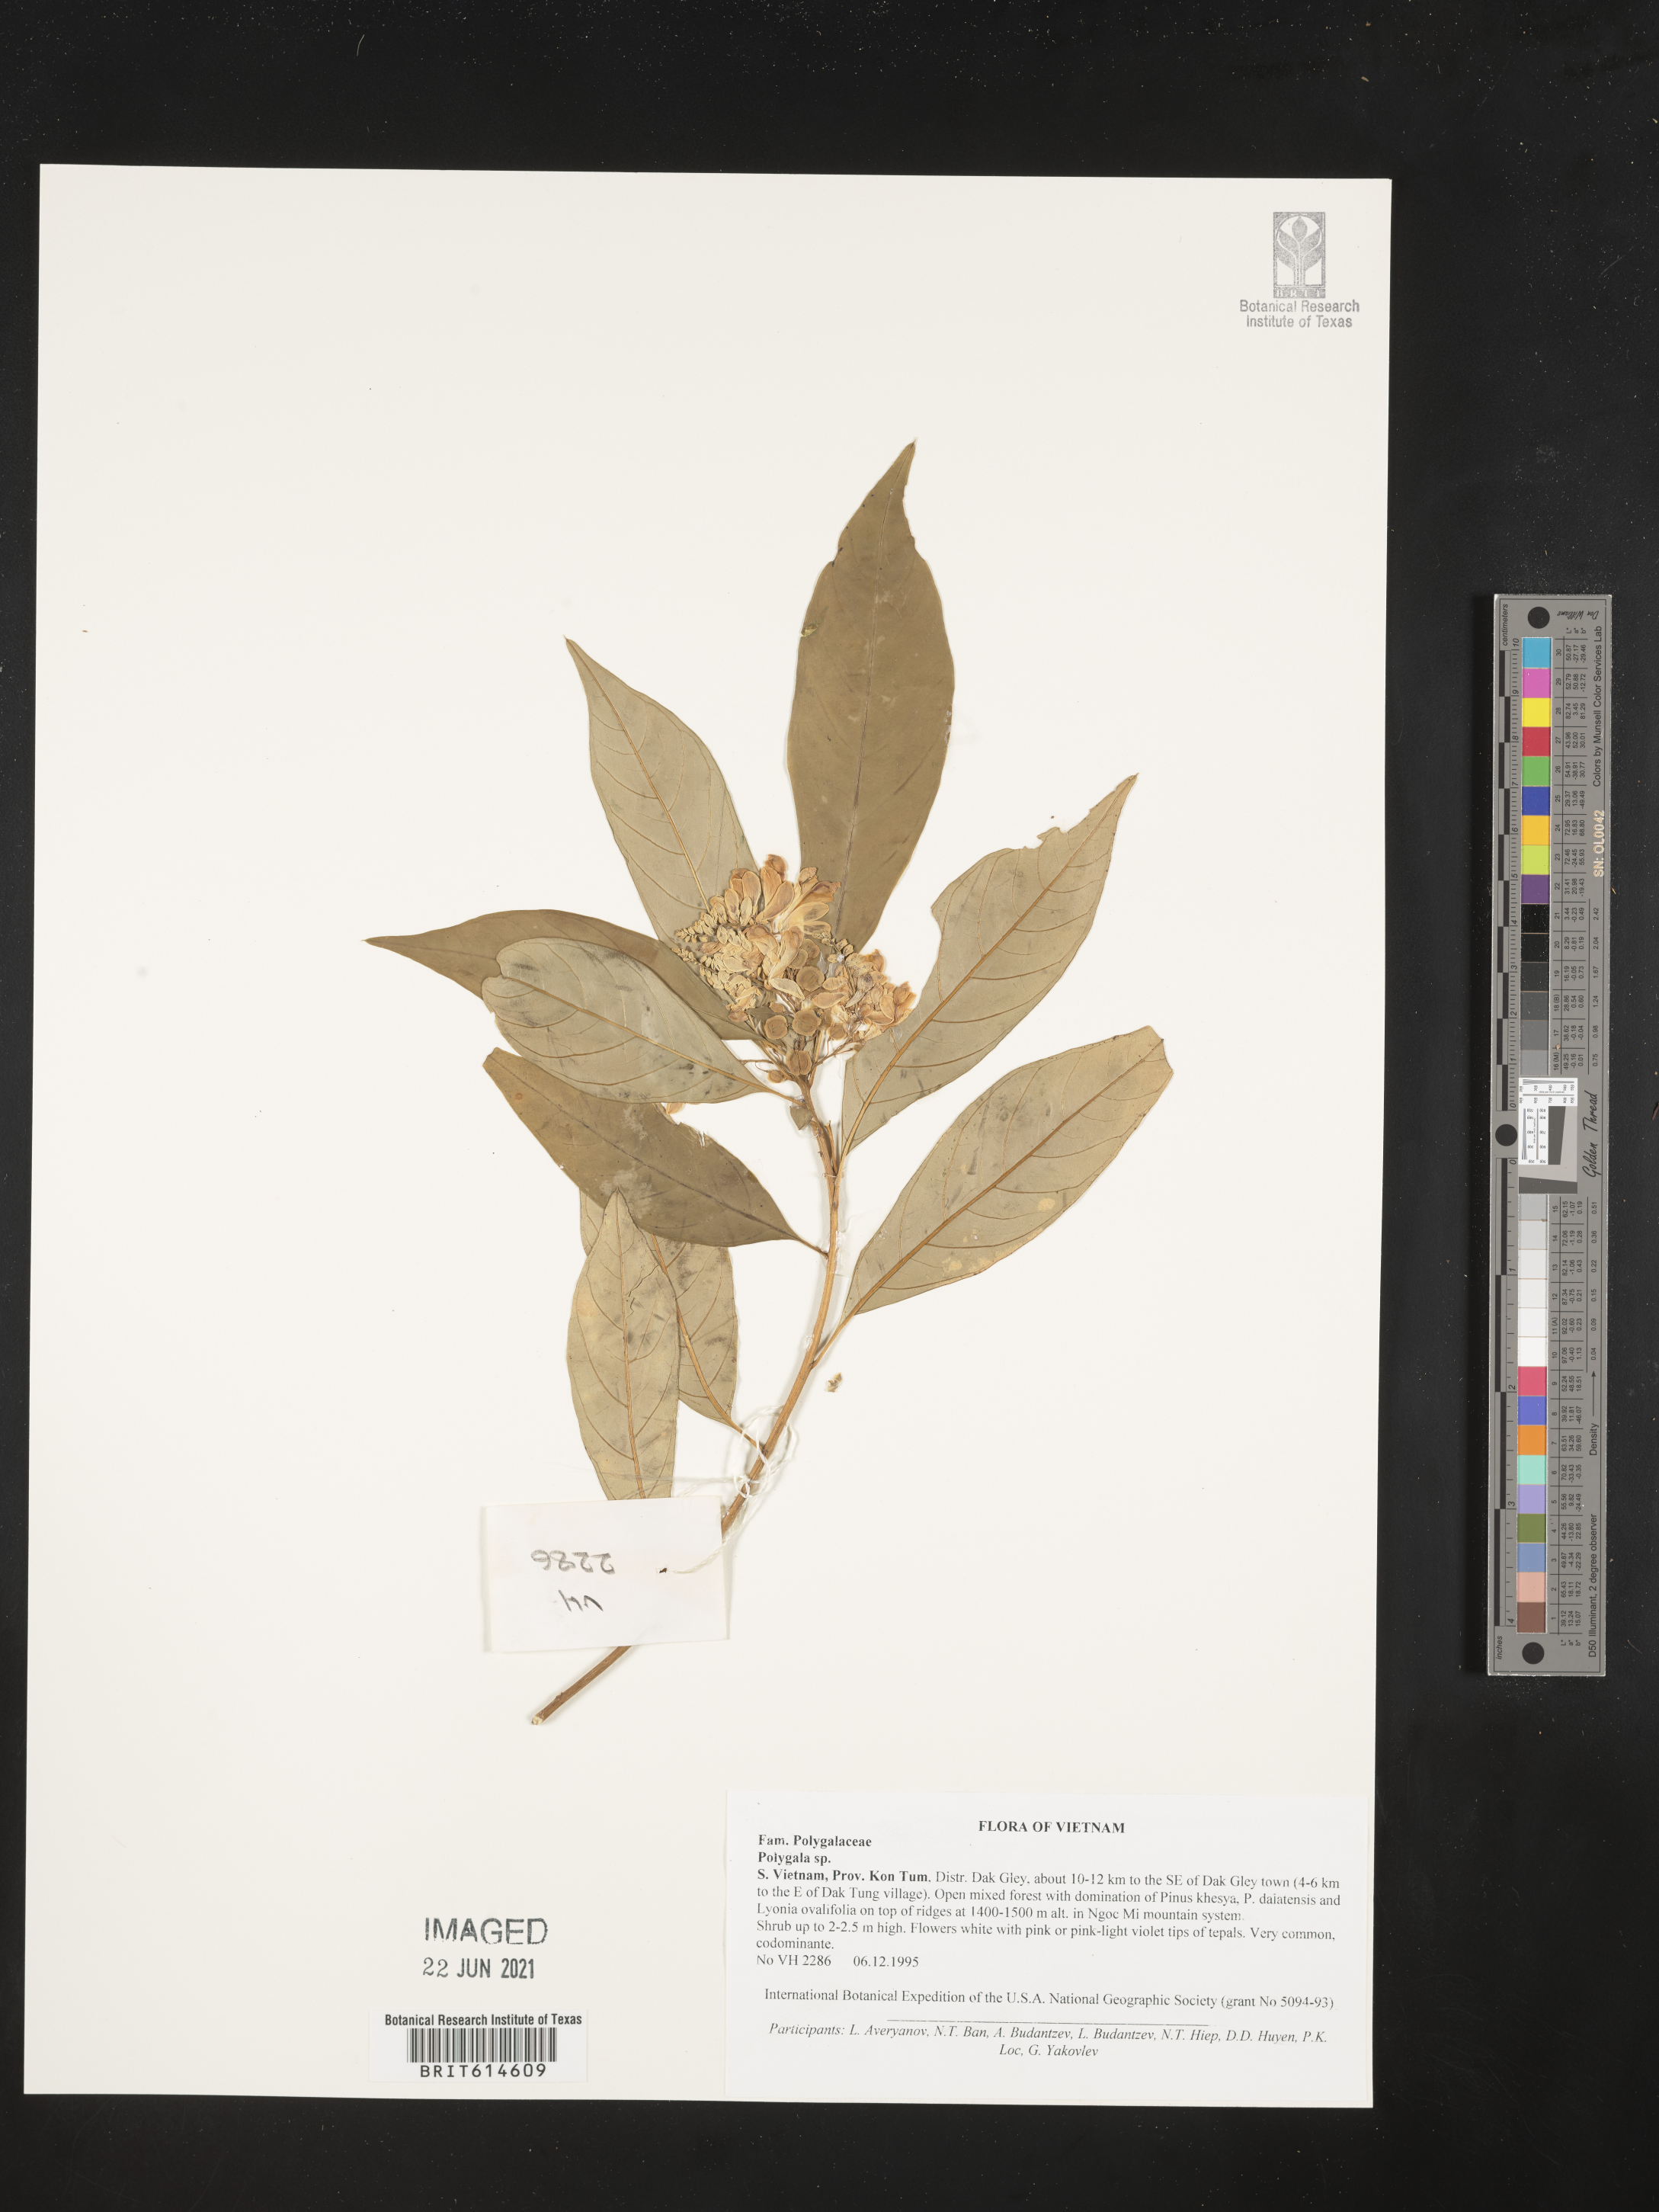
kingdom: Plantae
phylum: Tracheophyta
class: Magnoliopsida
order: Fabales
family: Polygalaceae
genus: Polygala
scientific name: Polygala
